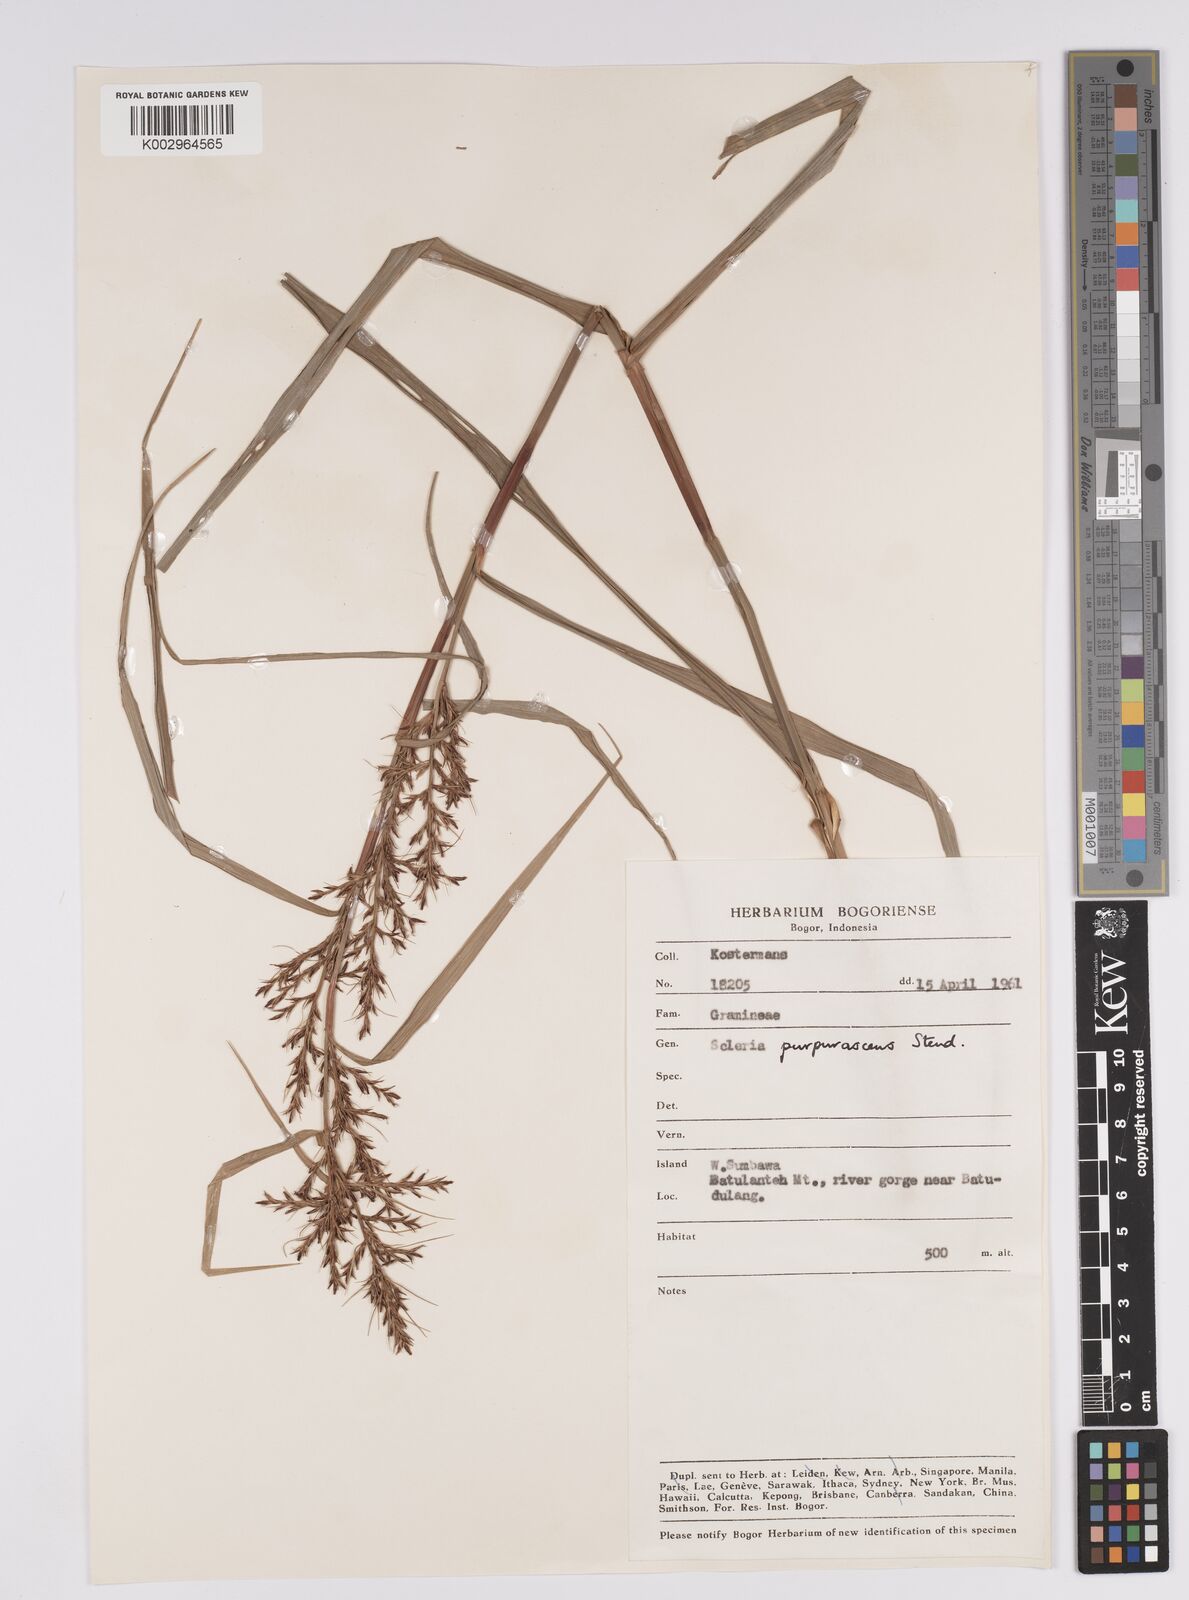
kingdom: Plantae
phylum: Tracheophyta
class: Liliopsida
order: Poales
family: Cyperaceae
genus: Scleria
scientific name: Scleria purpurascens
